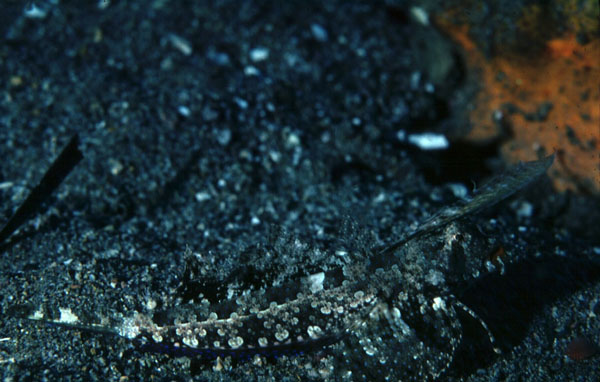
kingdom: Animalia
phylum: Chordata
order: Perciformes
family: Callionymidae
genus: Dactylopus
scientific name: Dactylopus dactylopus
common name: Fingered dragonet
